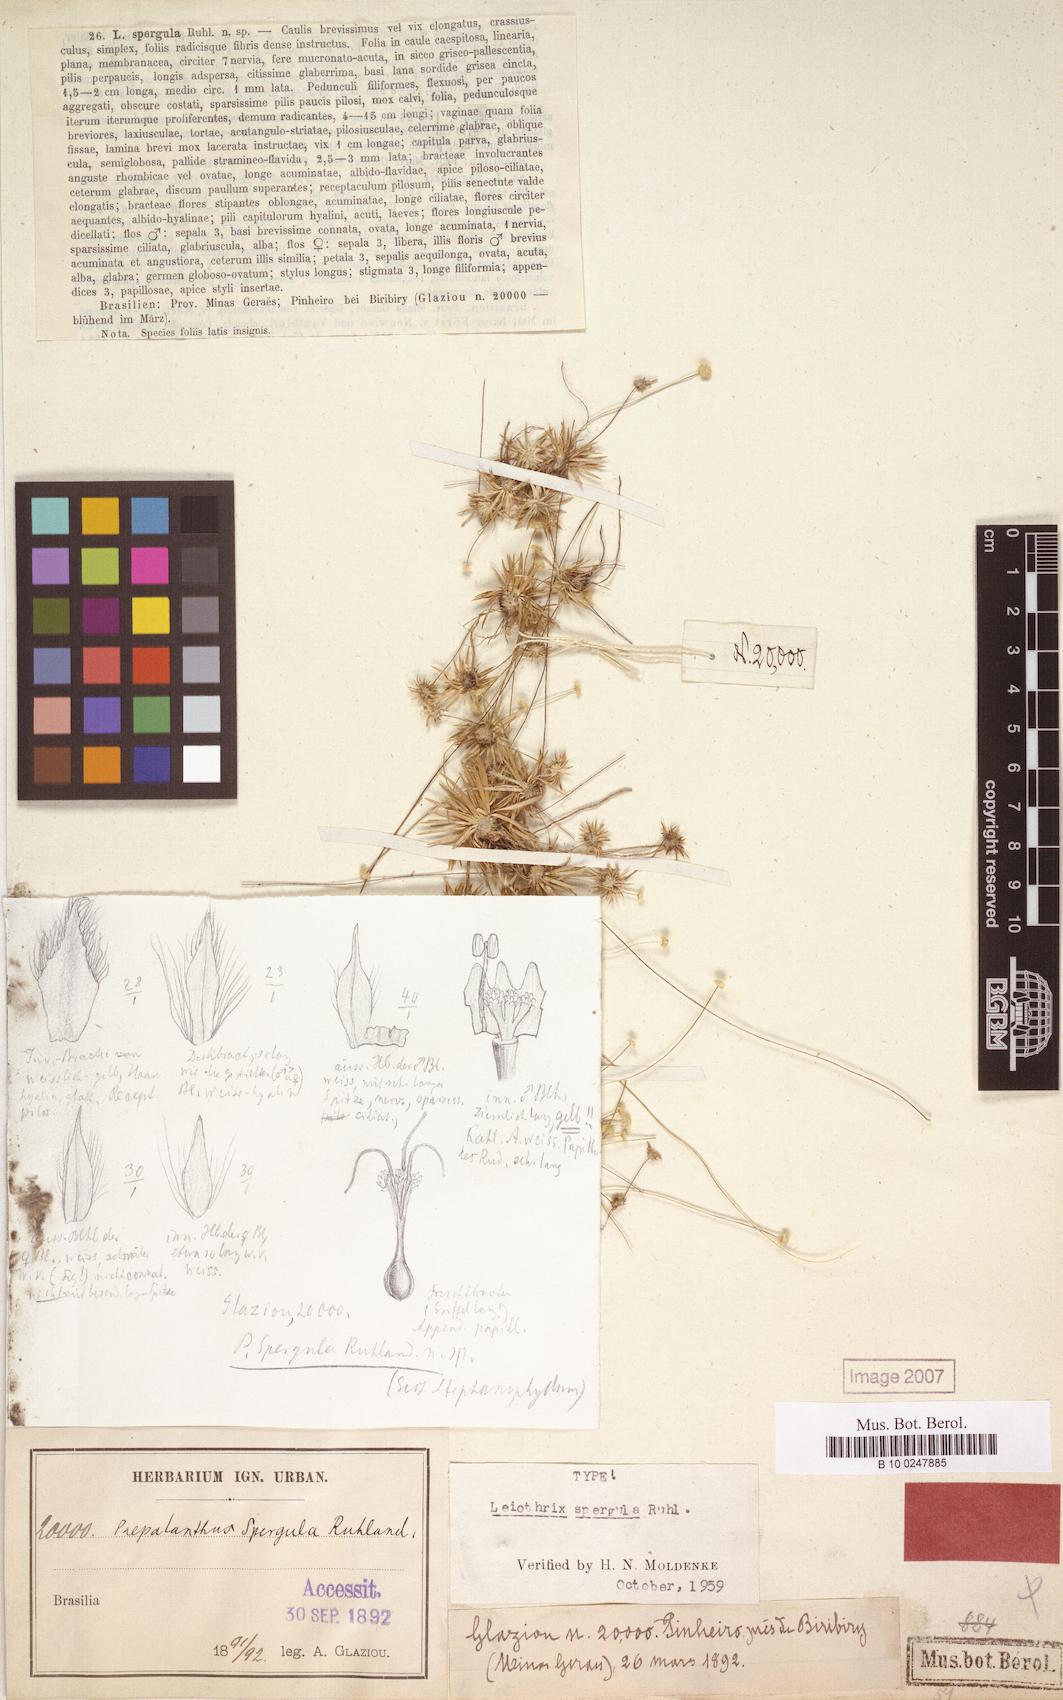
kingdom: Plantae
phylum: Tracheophyta
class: Liliopsida
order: Poales
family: Eriocaulaceae
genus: Leiothrix
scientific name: Leiothrix spergula
